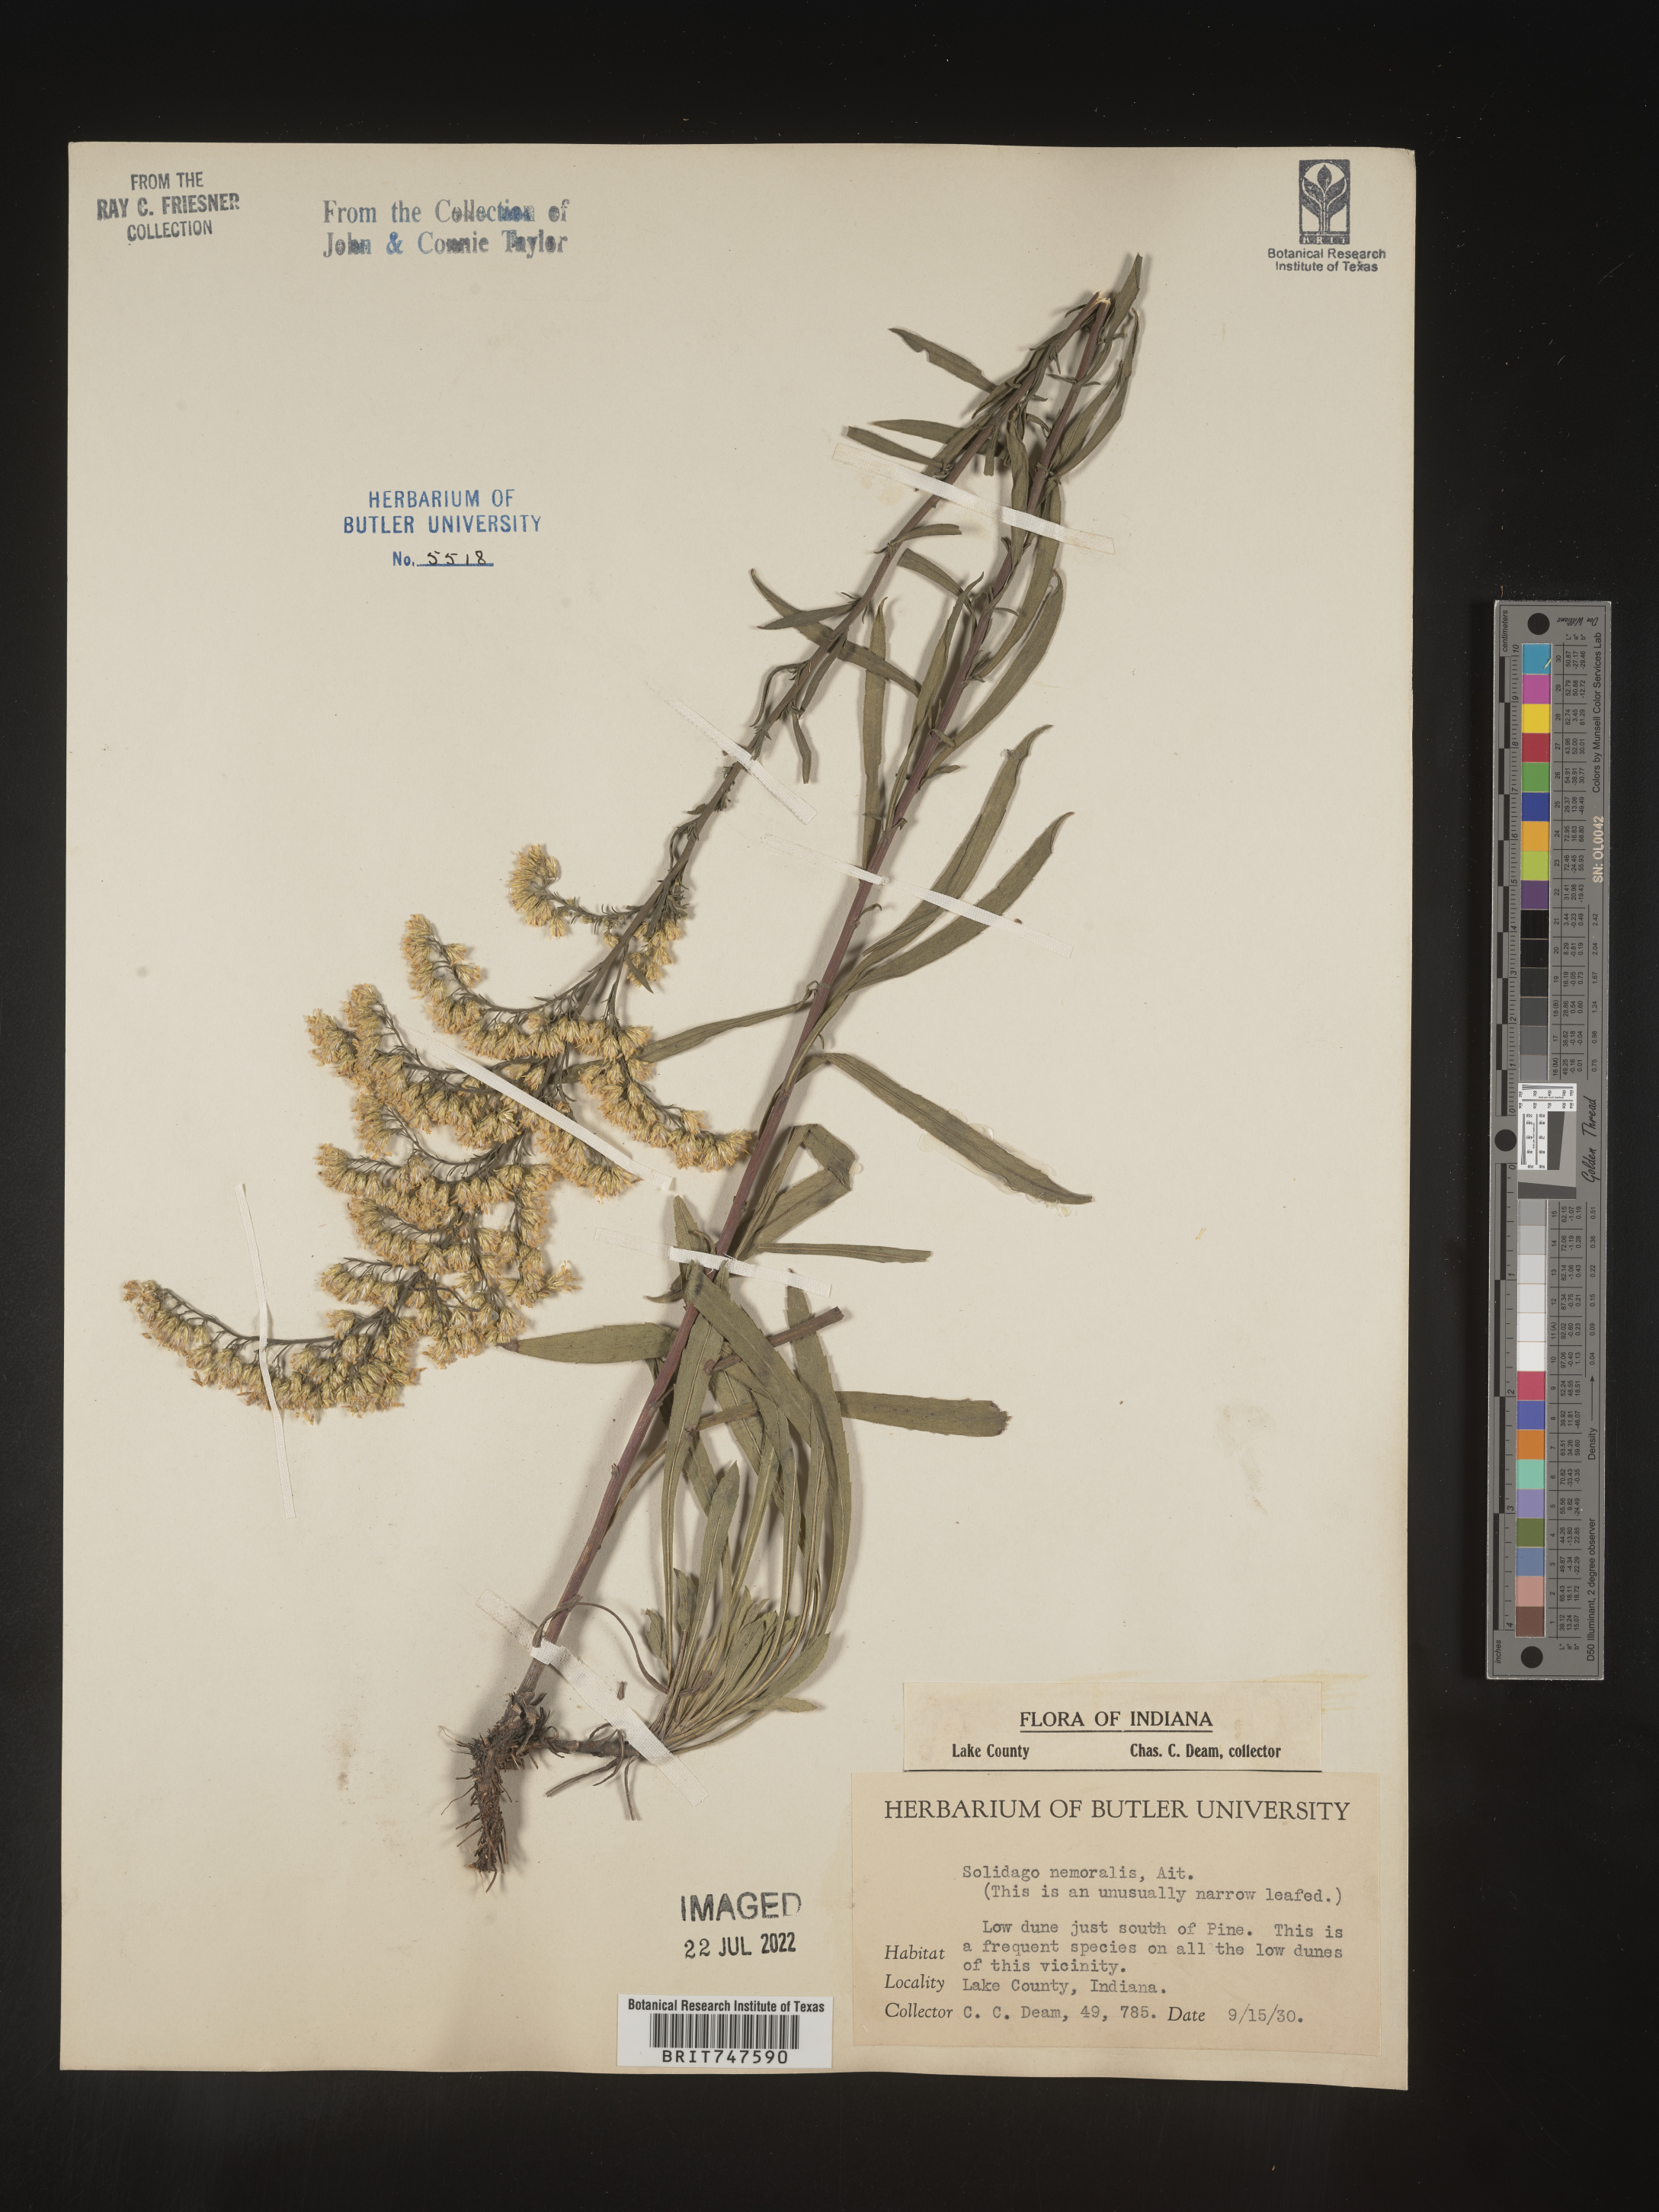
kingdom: Plantae
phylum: Tracheophyta
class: Magnoliopsida
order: Asterales
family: Asteraceae
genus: Solidago
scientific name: Solidago nemoralis
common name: Grey goldenrod
